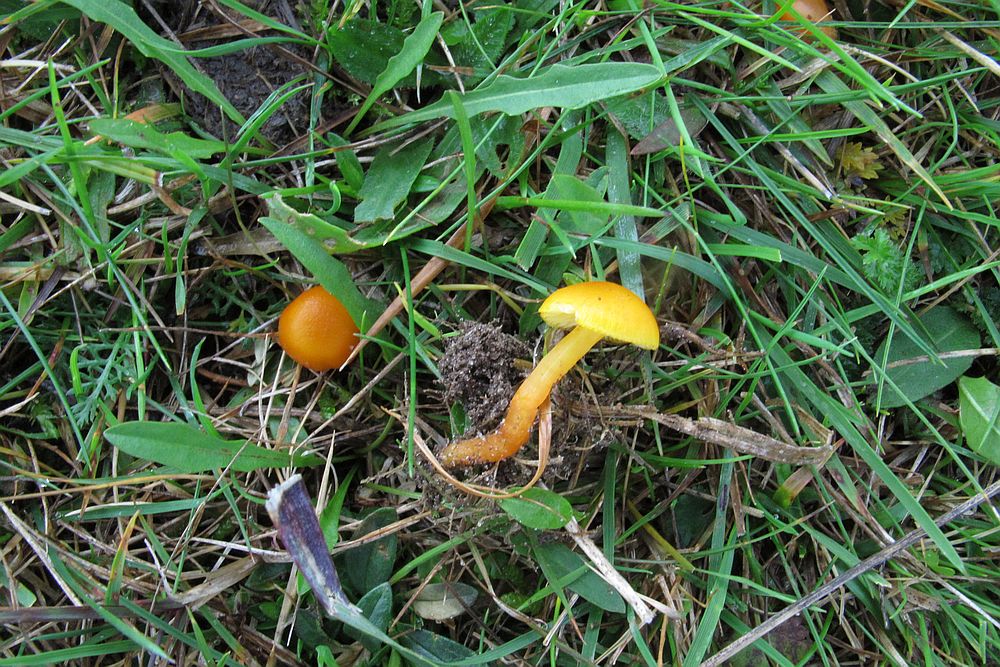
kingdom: Fungi
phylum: Basidiomycota
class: Agaricomycetes
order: Agaricales
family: Hygrophoraceae
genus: Hygrocybe
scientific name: Hygrocybe ceracea
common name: voksgul vokshat
